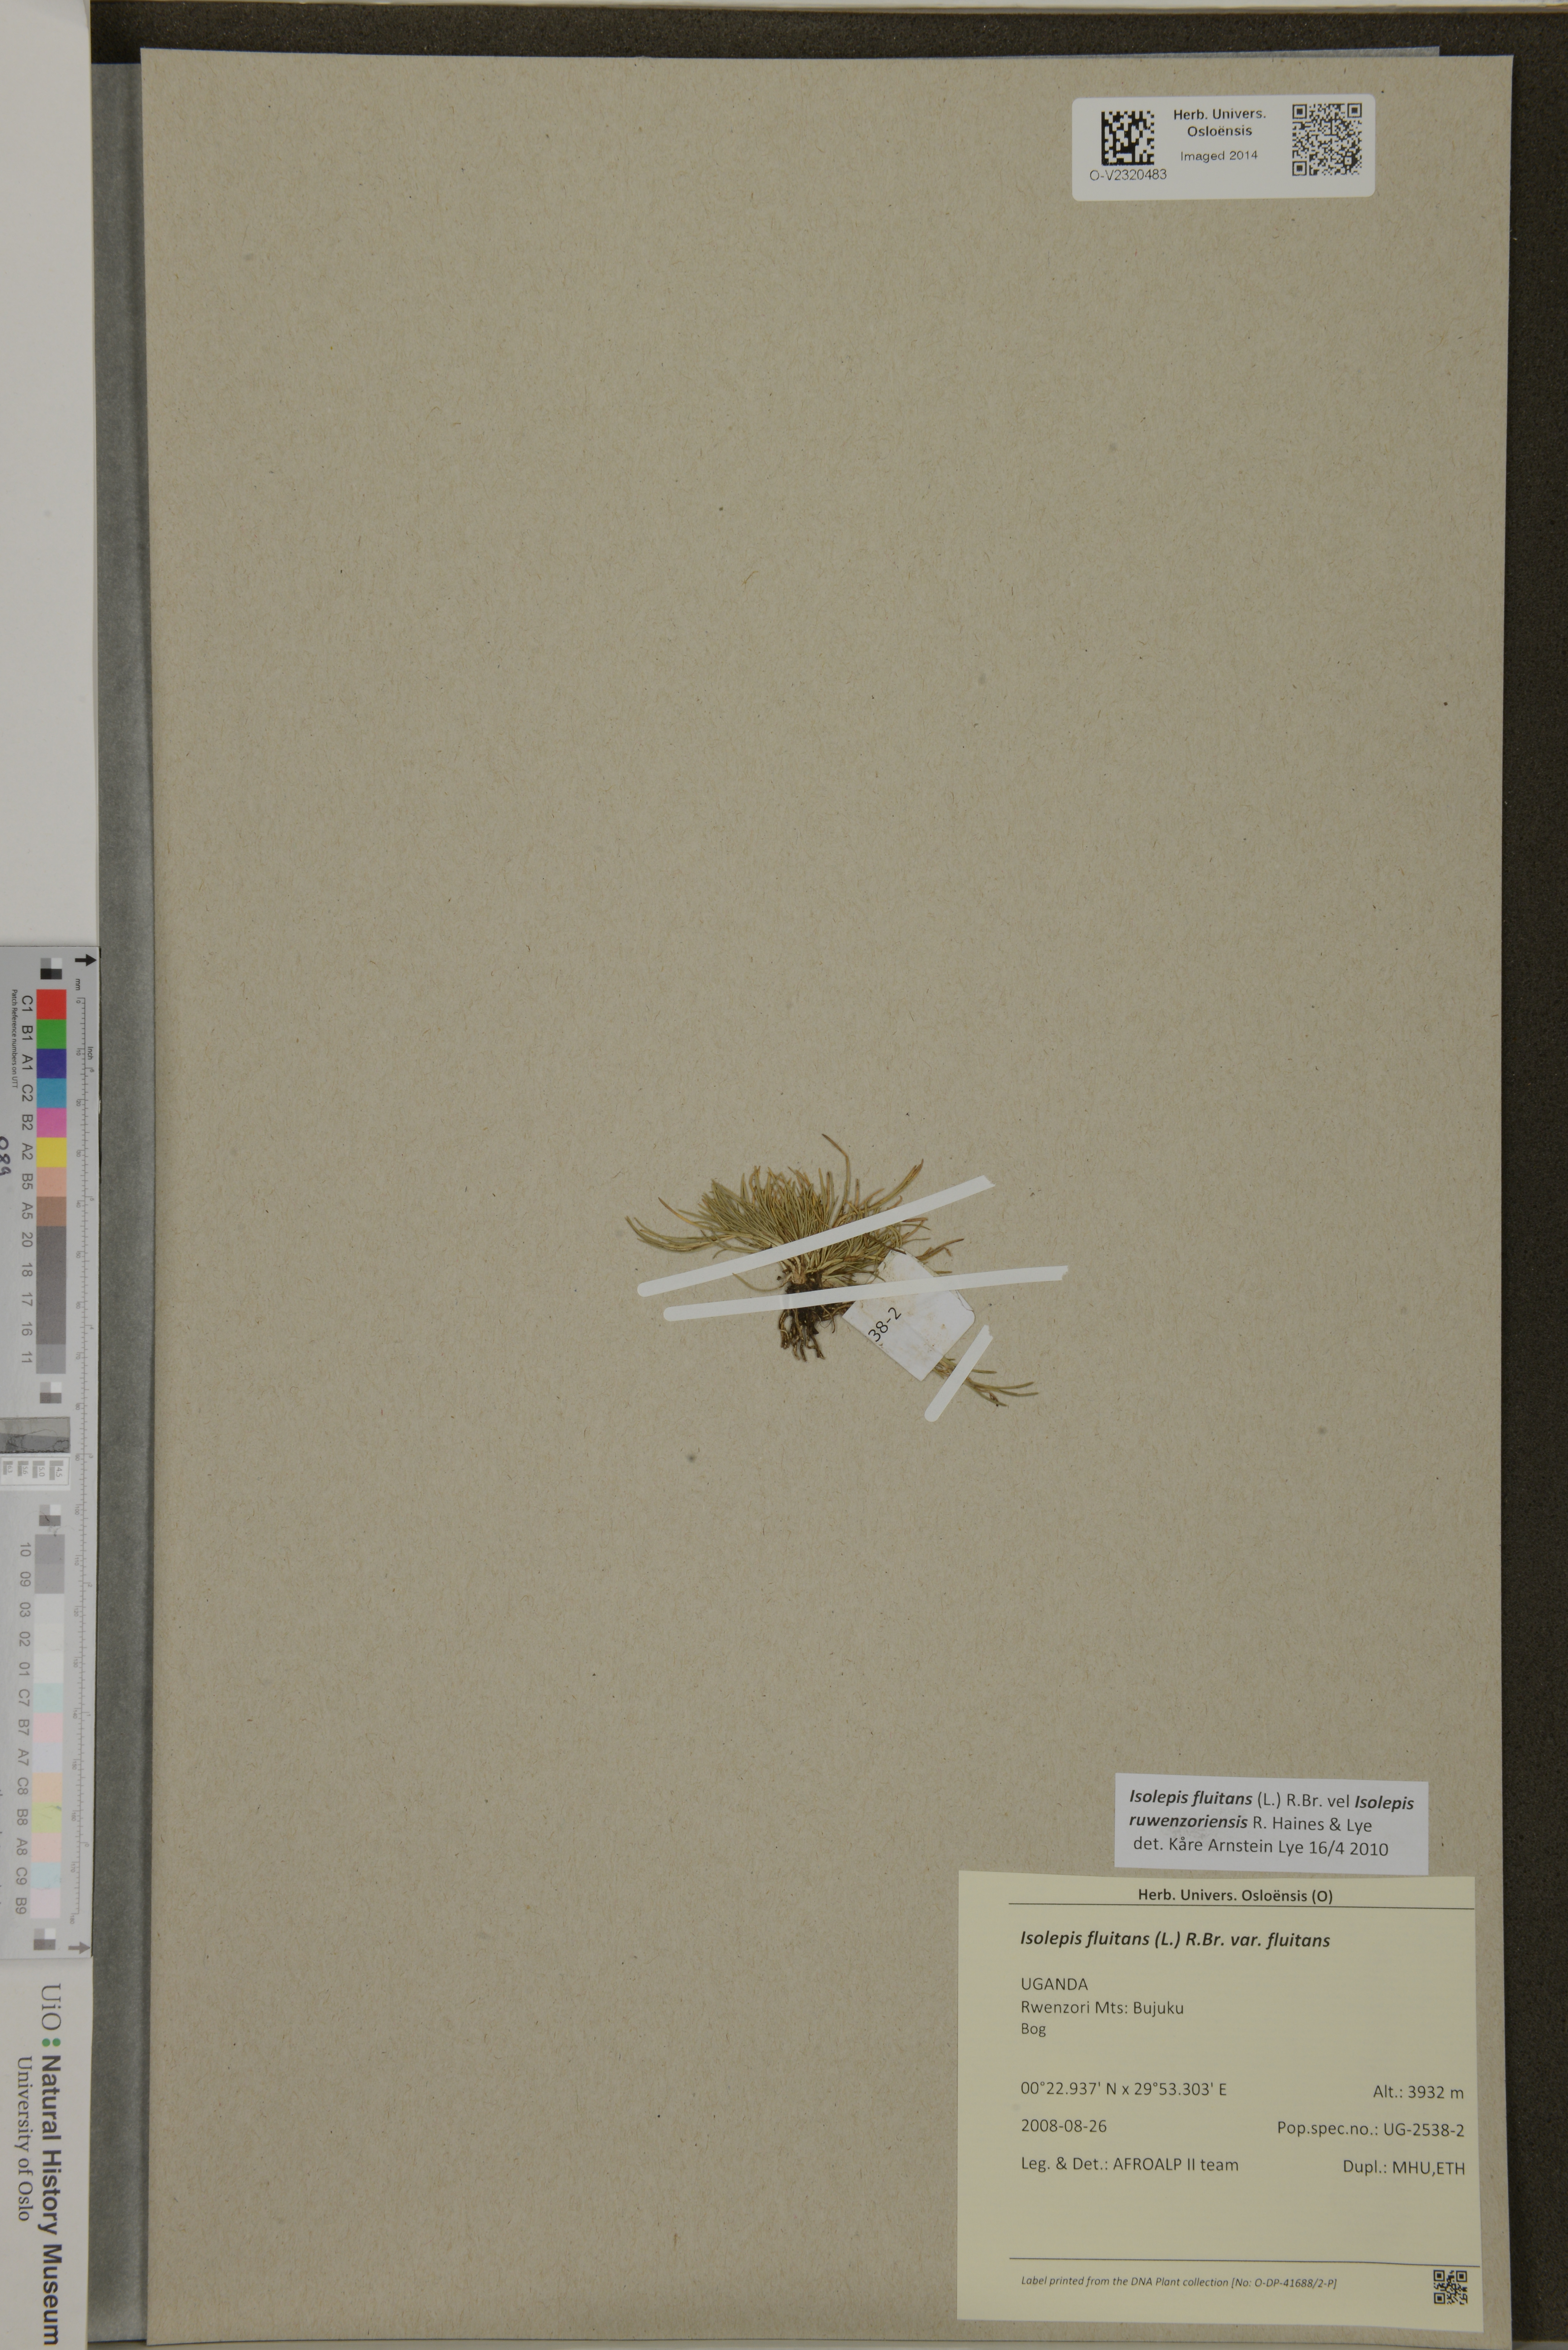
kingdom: Plantae
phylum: Tracheophyta
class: Liliopsida
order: Poales
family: Cyperaceae
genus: Isolepis
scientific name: Isolepis fluitans
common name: Floating club-rush
